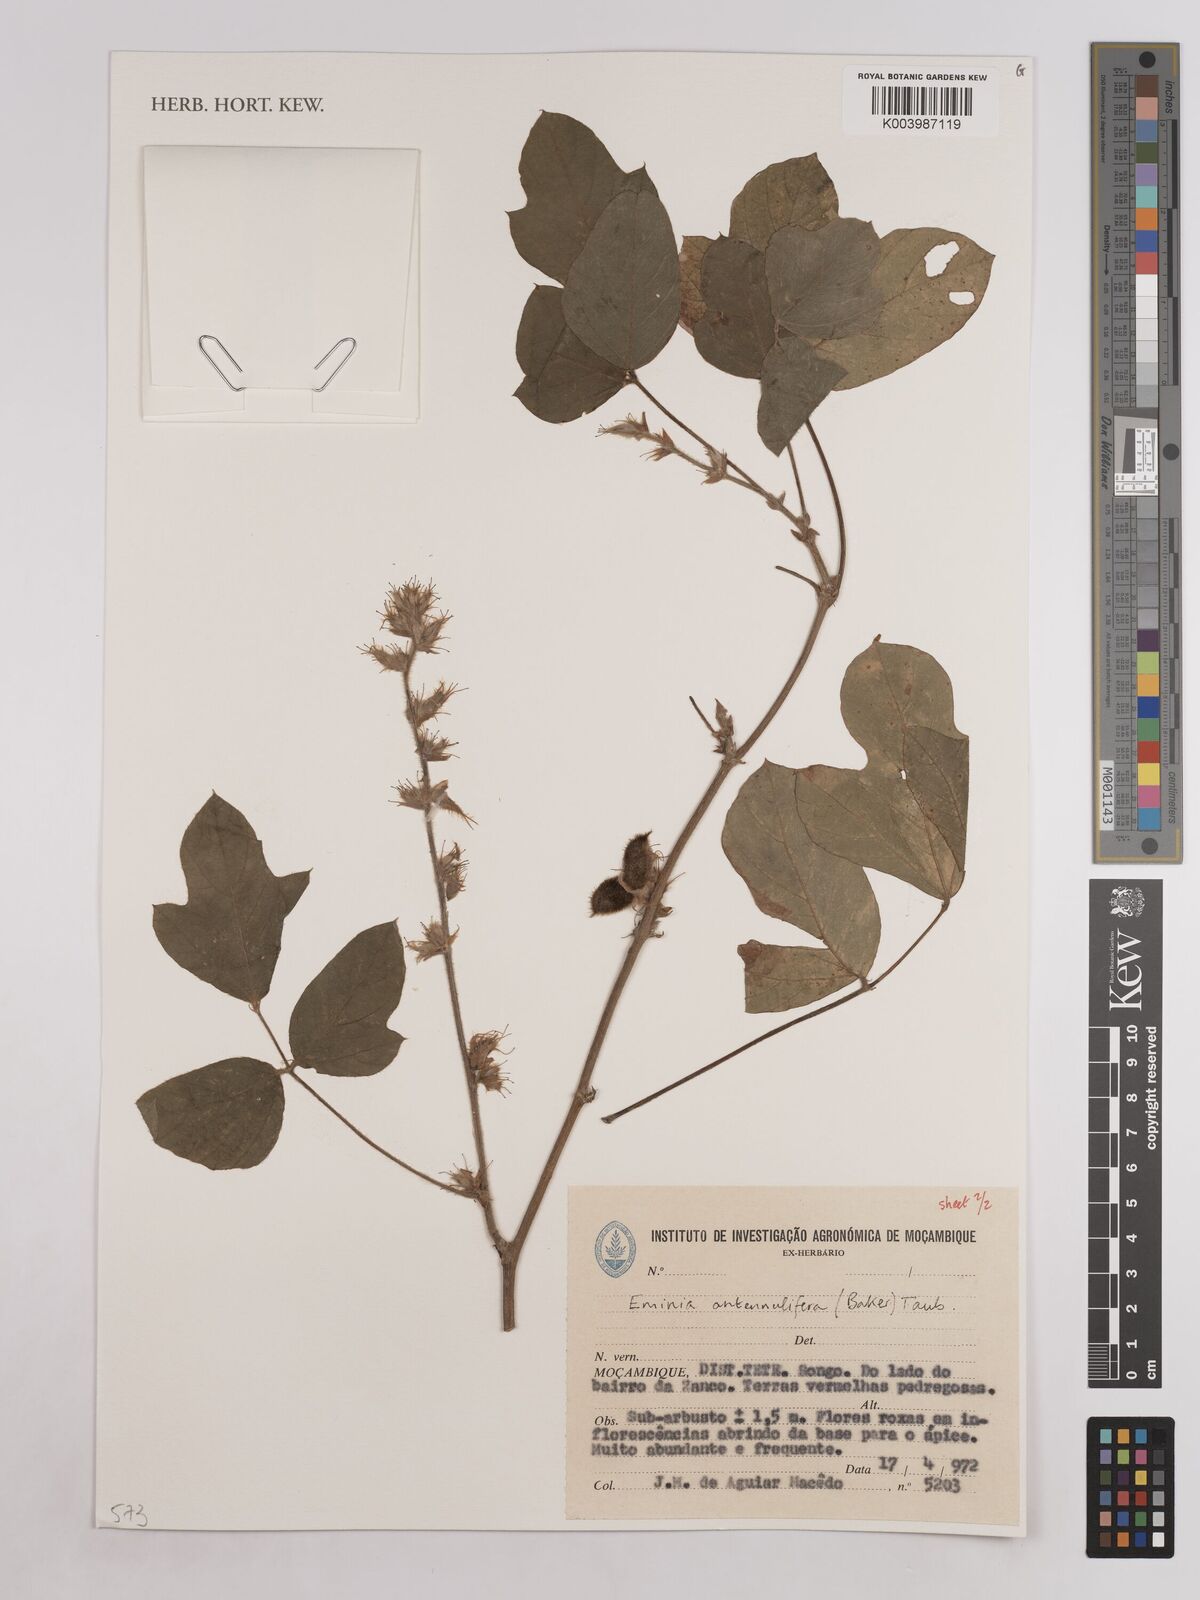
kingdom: Plantae
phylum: Tracheophyta
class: Magnoliopsida
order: Fabales
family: Fabaceae
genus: Eminia
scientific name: Eminia antennulifera
